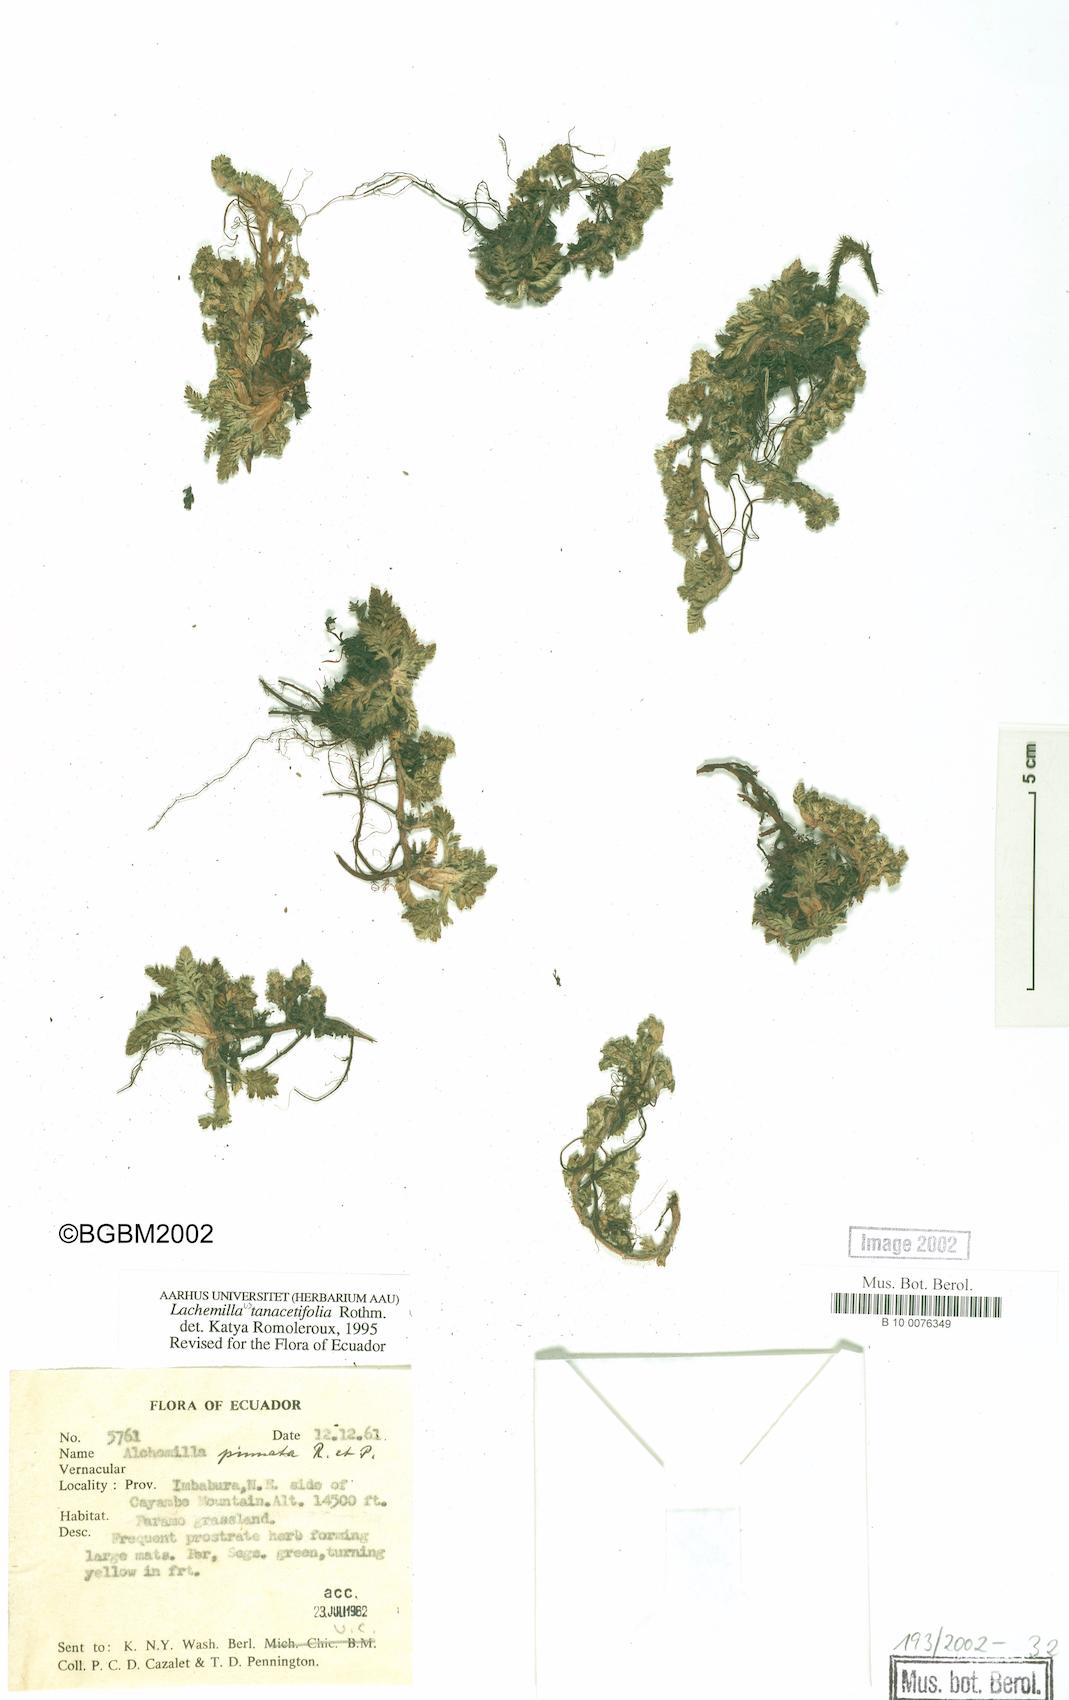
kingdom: Plantae
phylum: Tracheophyta
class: Magnoliopsida
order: Rosales
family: Rosaceae
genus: Lachemilla
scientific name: Lachemilla tanacetifolia
